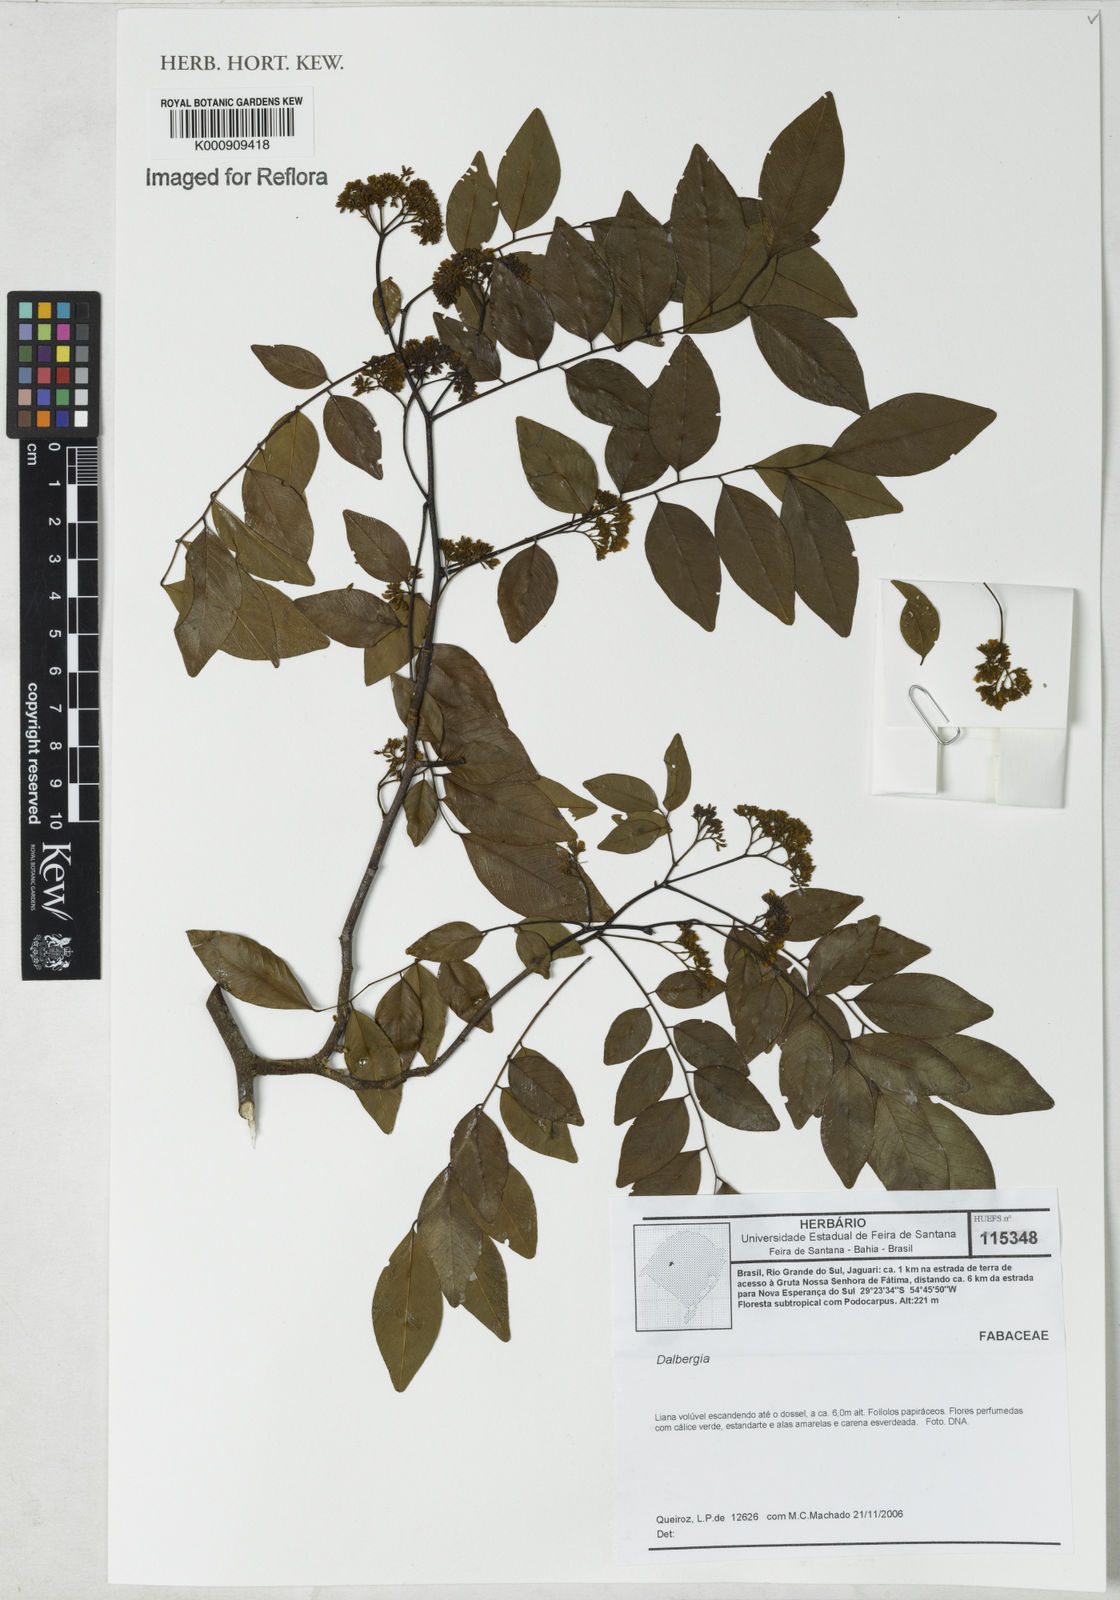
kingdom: Plantae
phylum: Tracheophyta
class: Magnoliopsida
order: Fabales
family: Fabaceae
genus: Dalbergia
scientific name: Dalbergia
